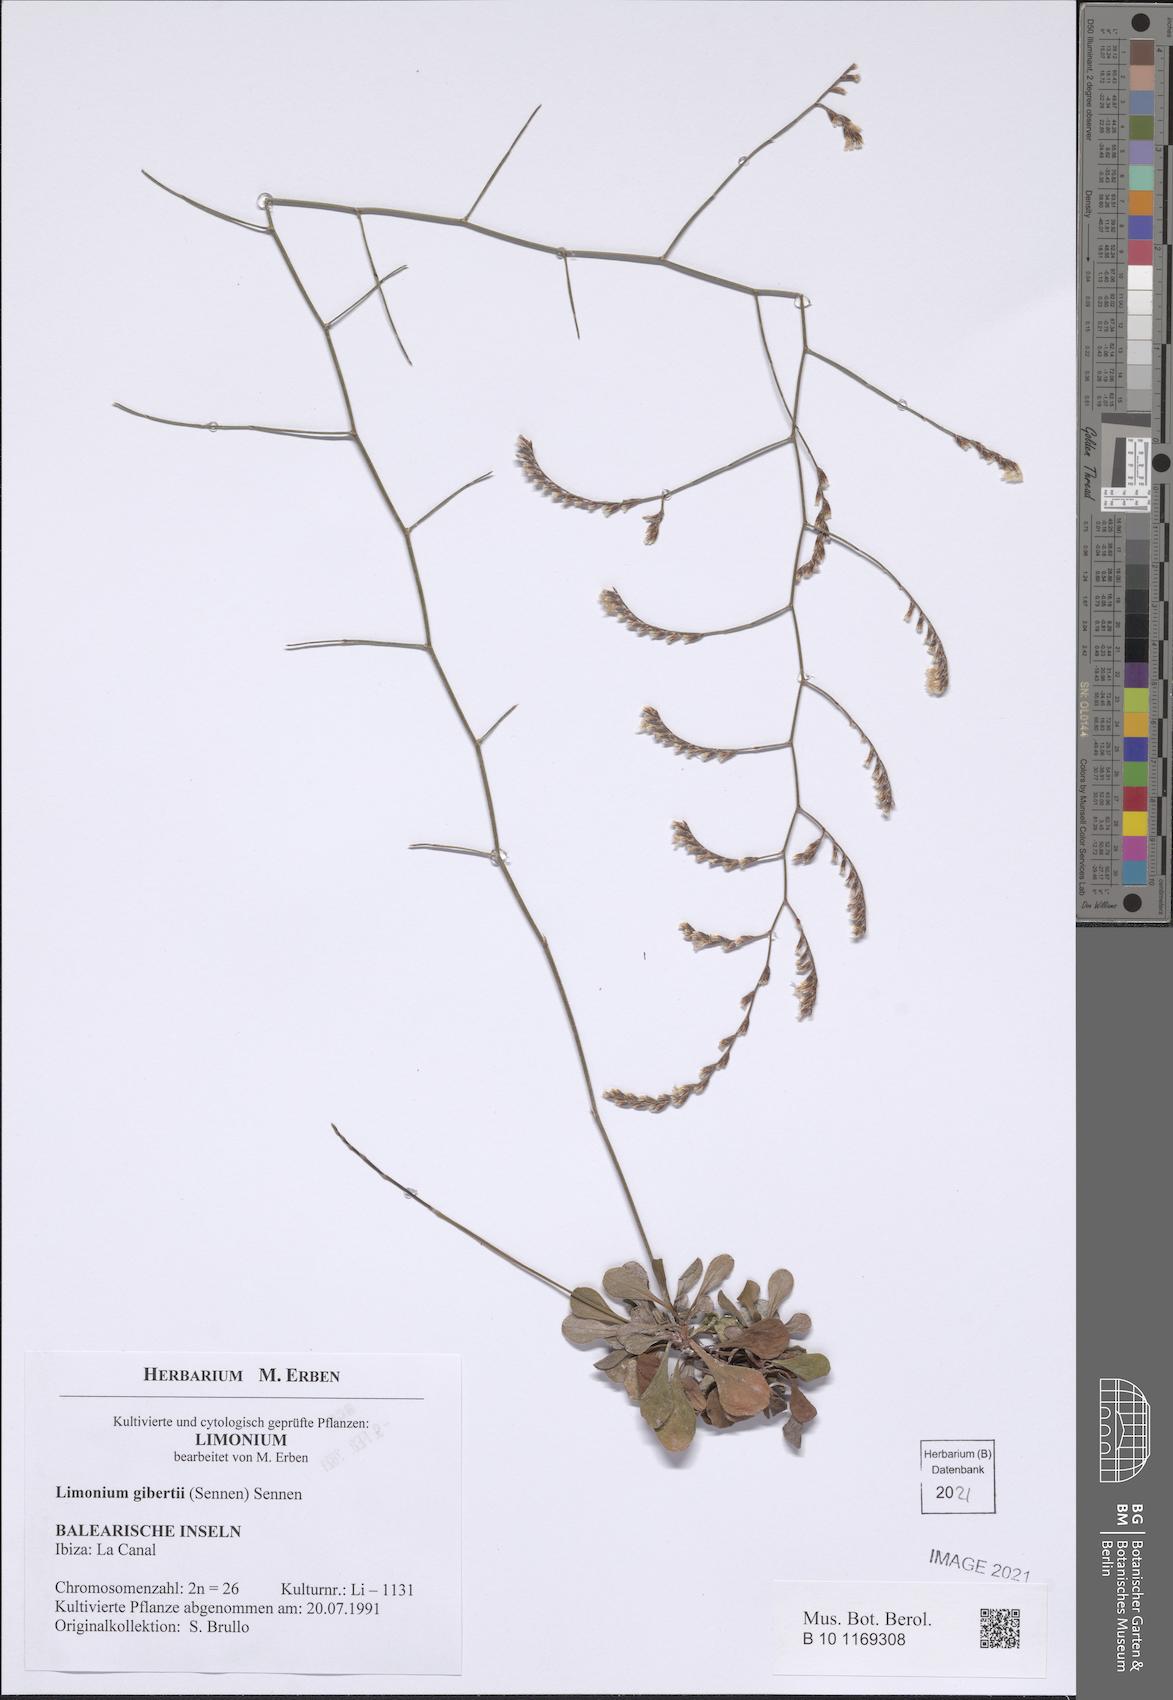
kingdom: Plantae
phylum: Tracheophyta
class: Magnoliopsida
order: Caryophyllales
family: Plumbaginaceae
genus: Limonium
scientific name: Limonium gibertii
